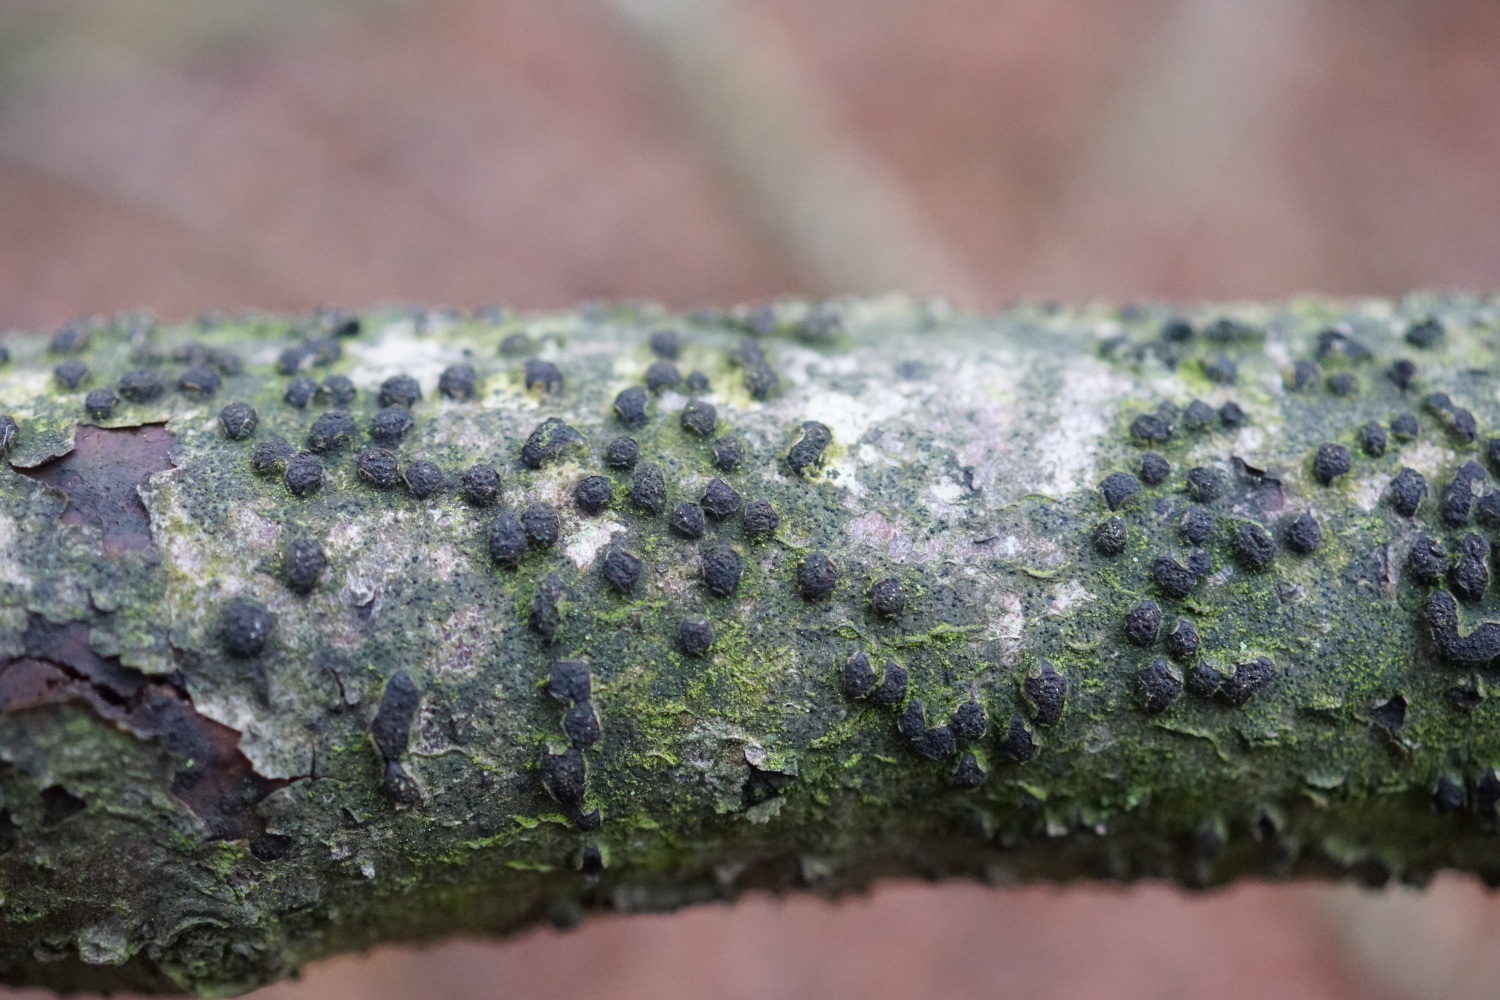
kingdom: Fungi
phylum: Ascomycota
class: Sordariomycetes
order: Xylariales
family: Diatrypaceae
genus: Diatrype
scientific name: Diatrype disciformis
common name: kant-kulskorpe
